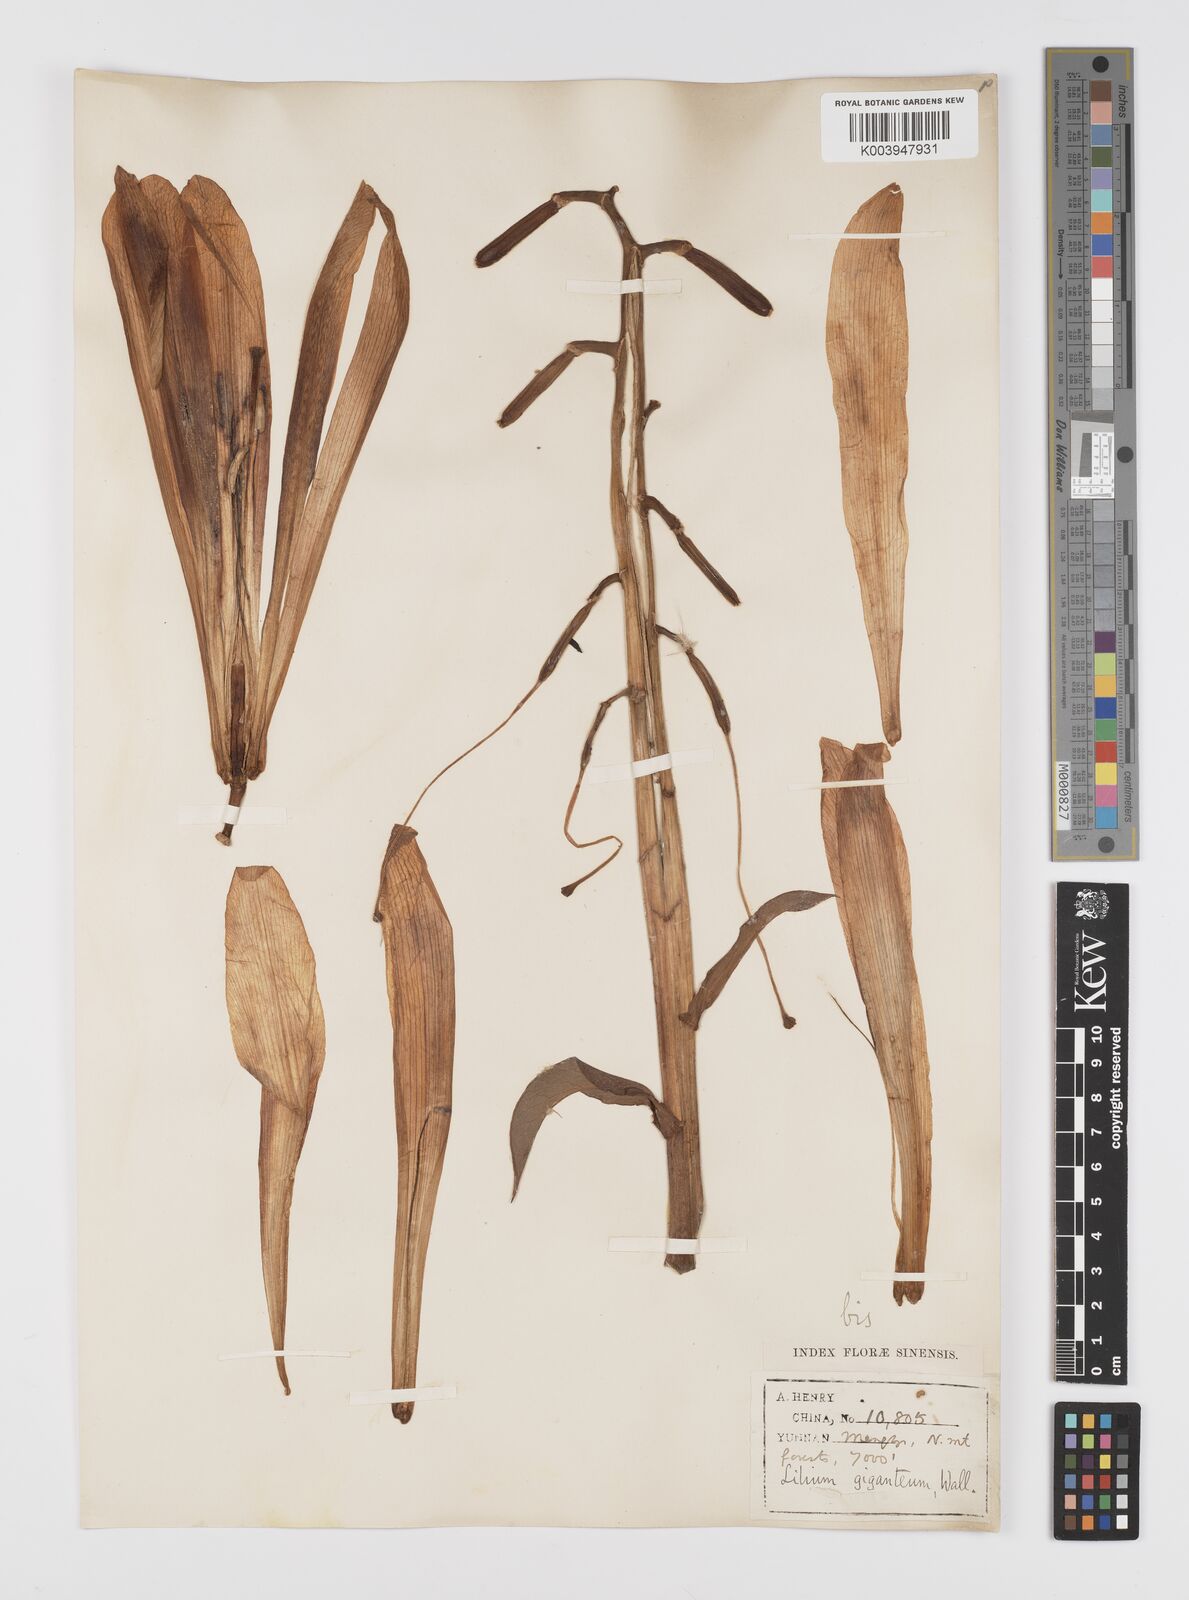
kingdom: Plantae
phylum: Tracheophyta
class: Liliopsida
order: Liliales
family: Liliaceae
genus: Cardiocrinum
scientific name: Cardiocrinum giganteum
